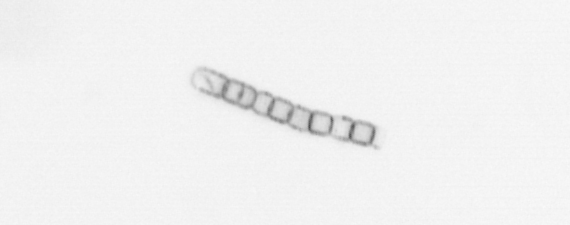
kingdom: Chromista
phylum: Ochrophyta
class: Bacillariophyceae
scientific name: Bacillariophyceae
